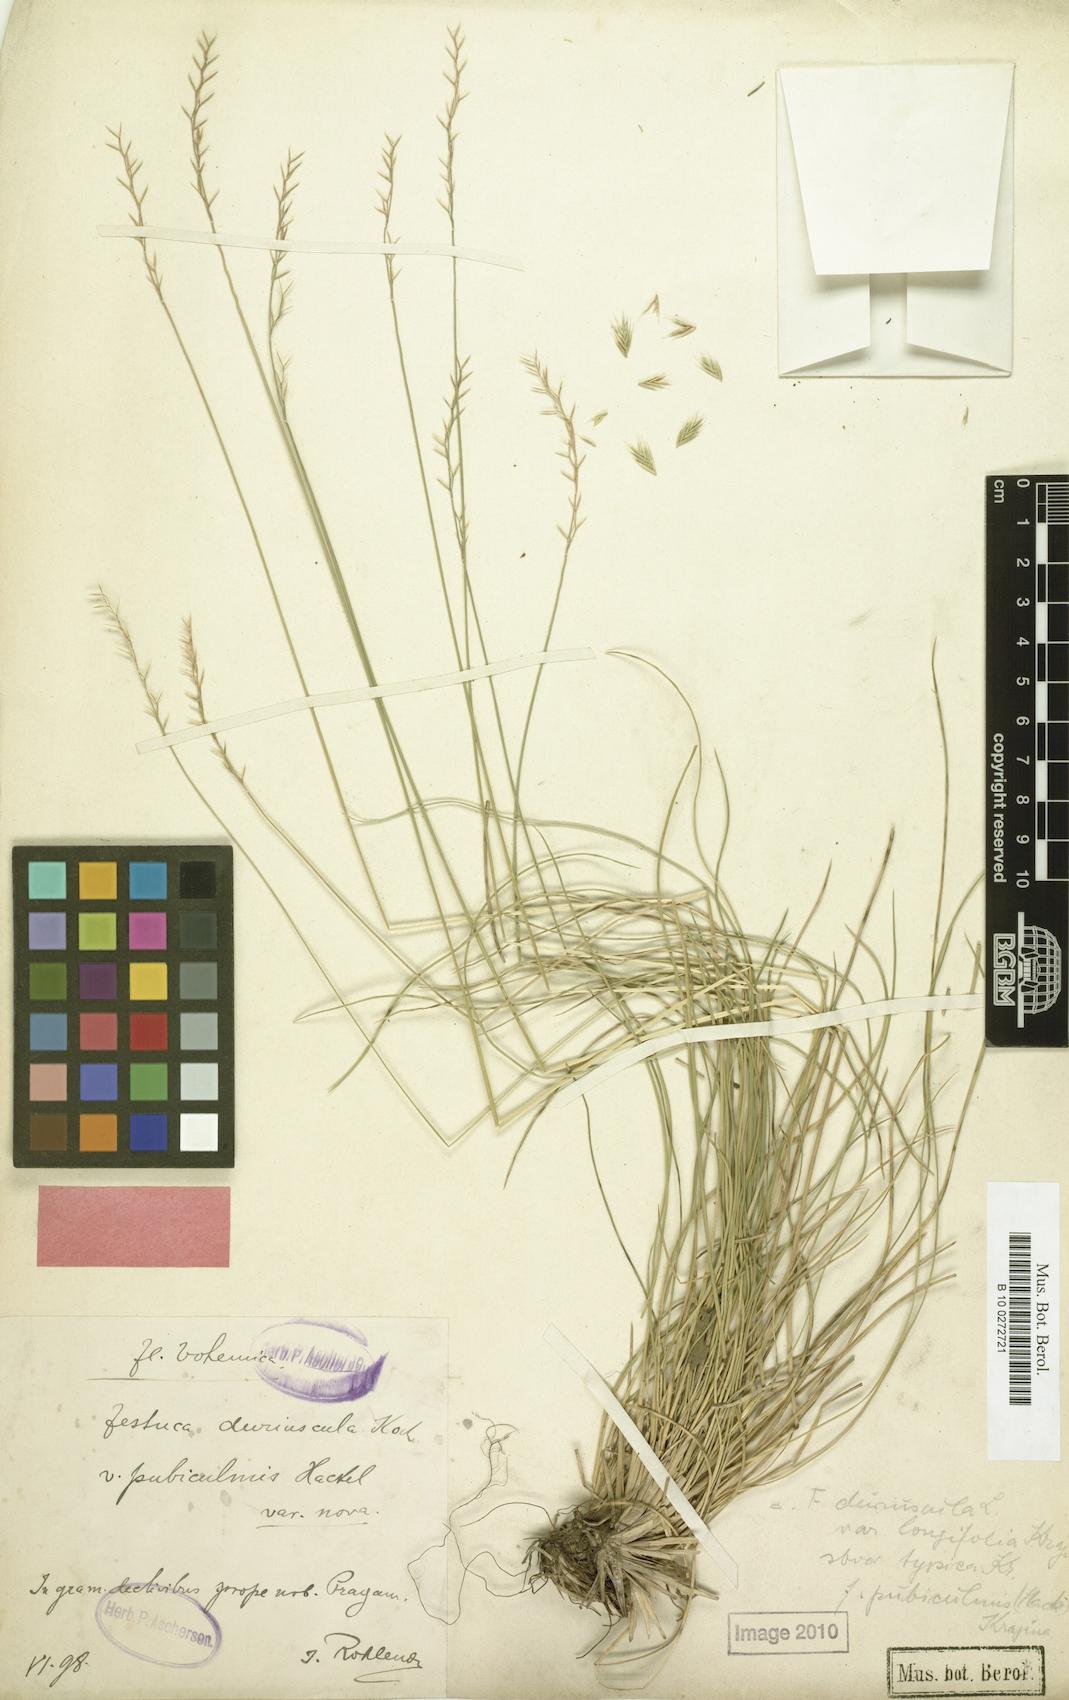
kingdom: Plantae
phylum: Tracheophyta
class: Liliopsida
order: Poales
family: Poaceae
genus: Festuca
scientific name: Festuca ovina
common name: Sheep fescue
